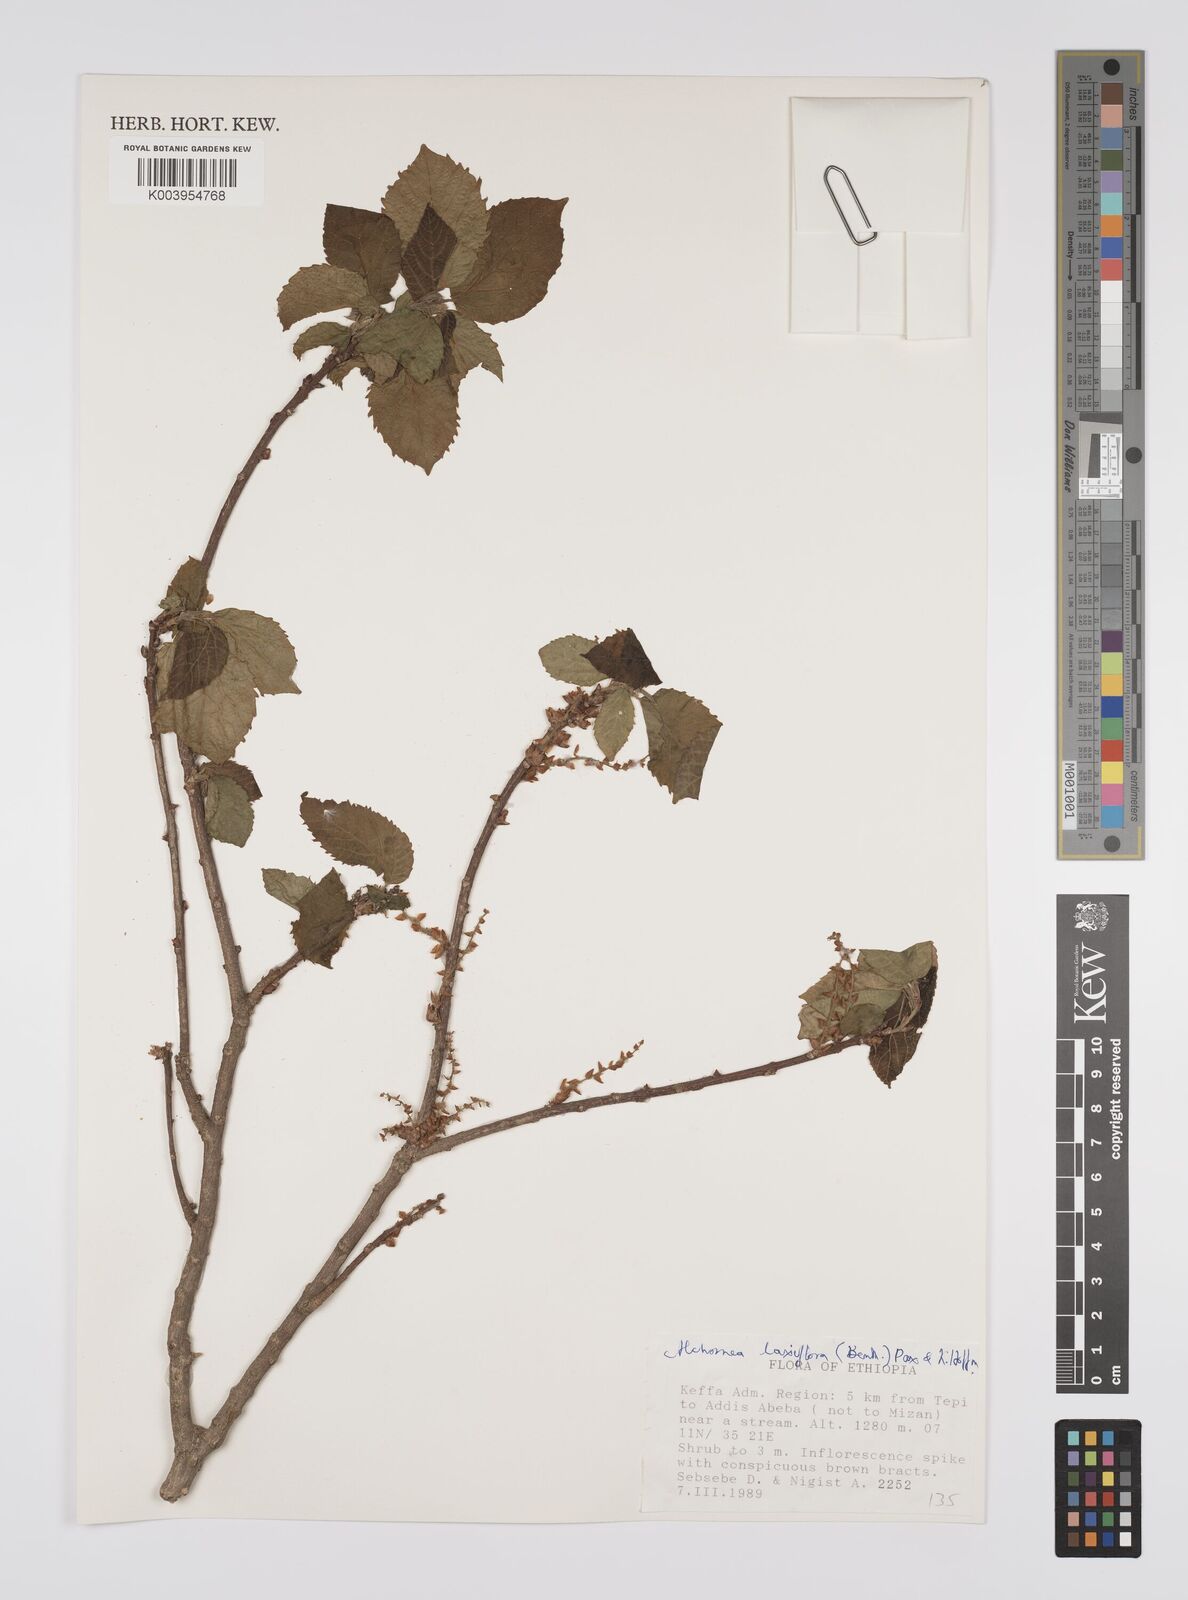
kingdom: Plantae
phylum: Tracheophyta
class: Magnoliopsida
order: Malpighiales
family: Euphorbiaceae
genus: Alchornea
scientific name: Alchornea laxiflora
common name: Lowveld bead-string
